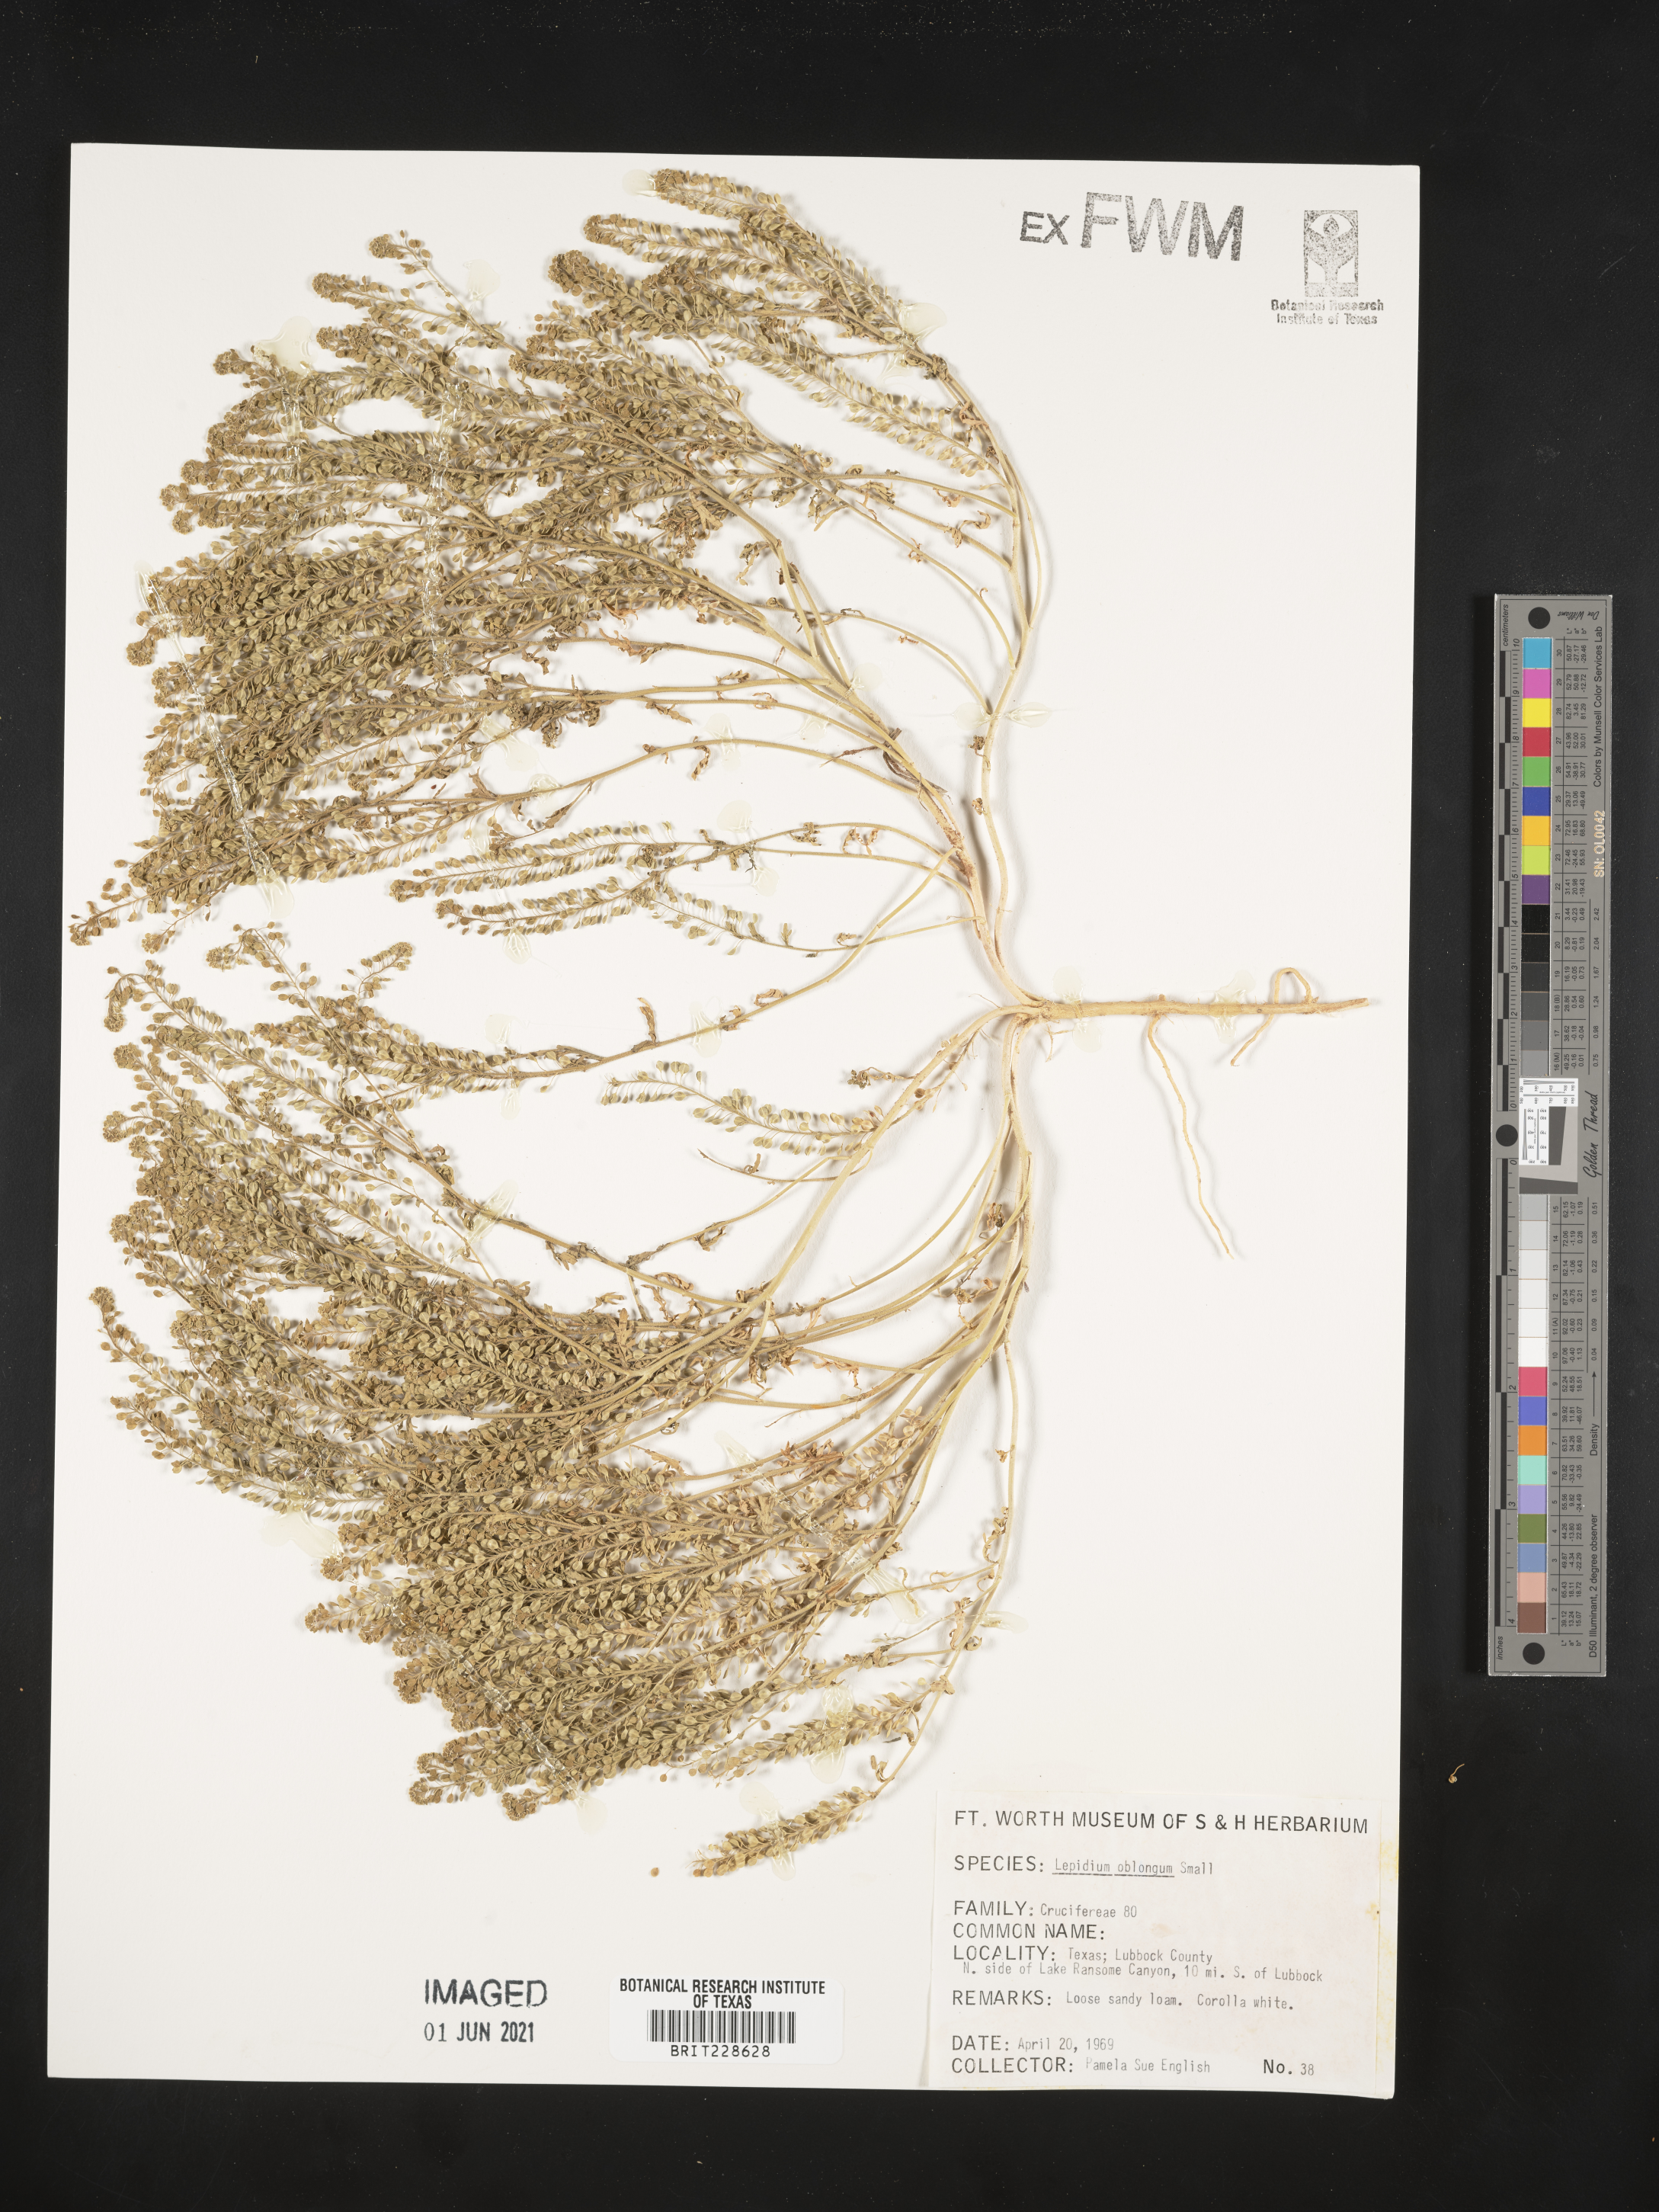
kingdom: Plantae
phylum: Tracheophyta
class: Magnoliopsida
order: Brassicales
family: Brassicaceae
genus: Lepidium
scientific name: Lepidium oblongum
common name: Veiny pepperweed
